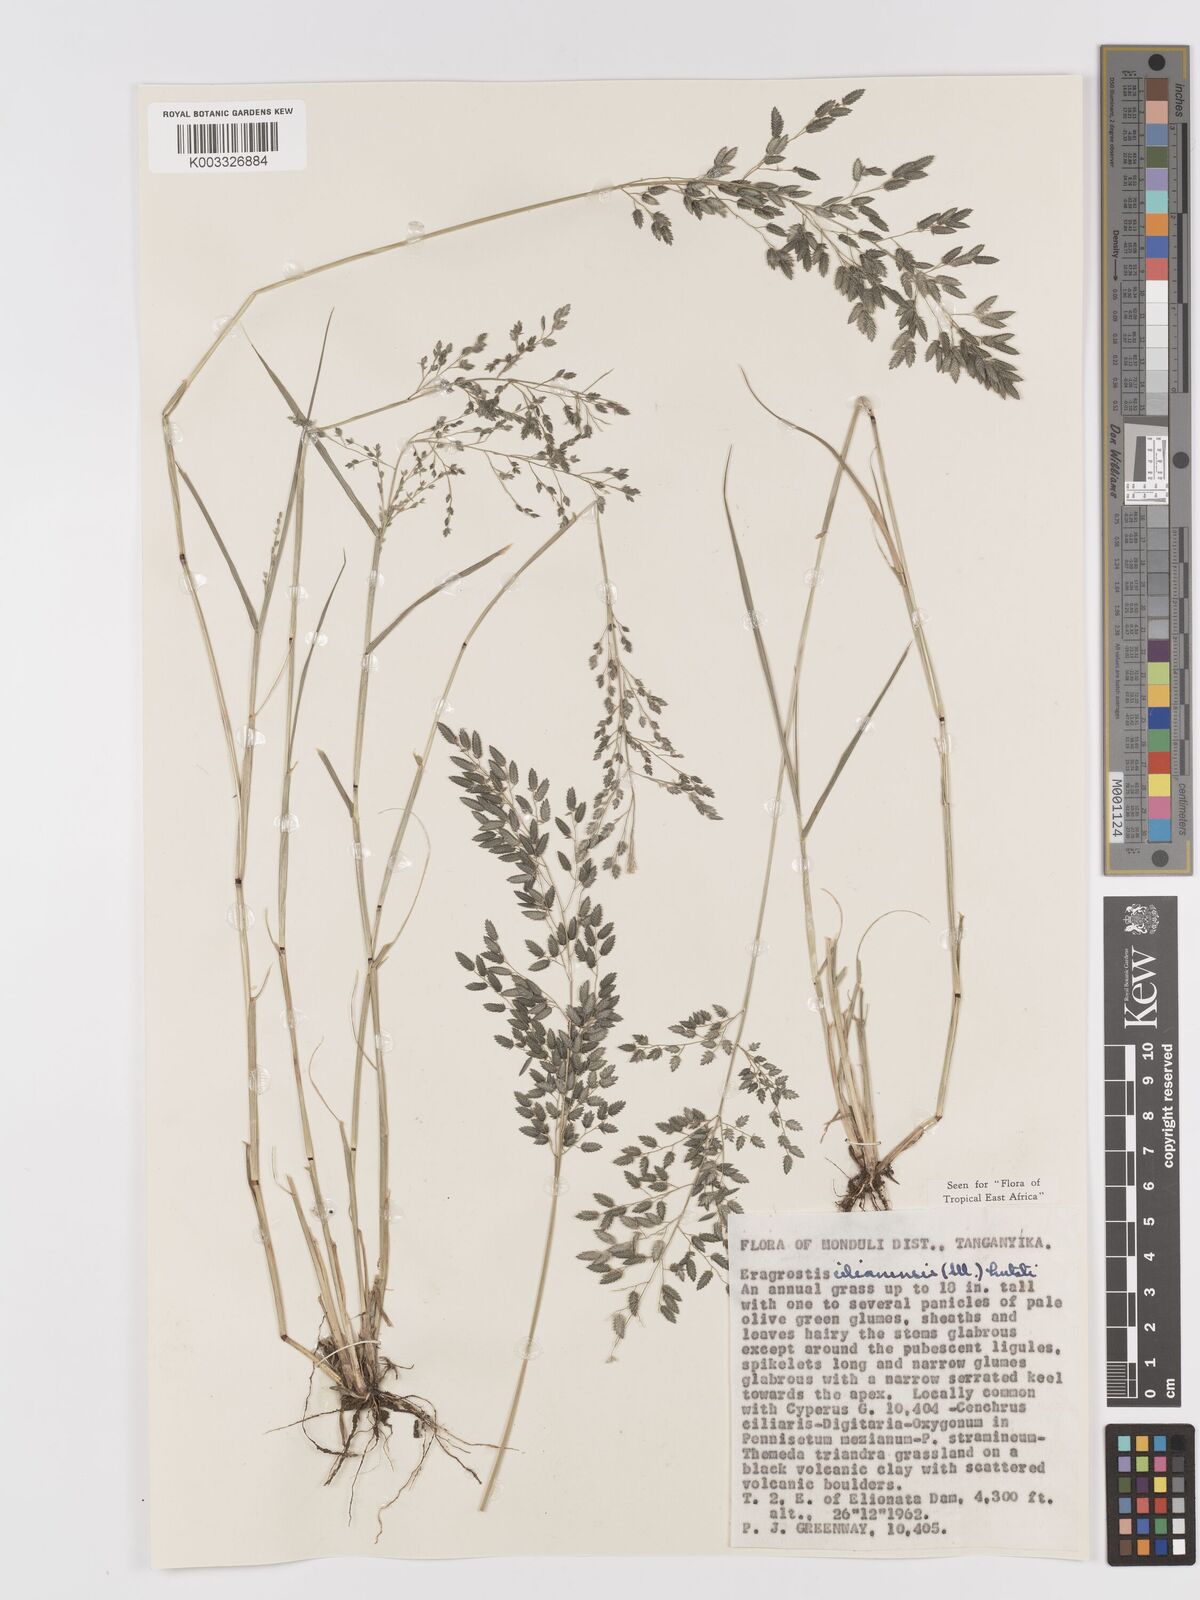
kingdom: Plantae
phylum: Tracheophyta
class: Liliopsida
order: Poales
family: Poaceae
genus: Eragrostis
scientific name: Eragrostis cilianensis
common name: Stinkgrass
